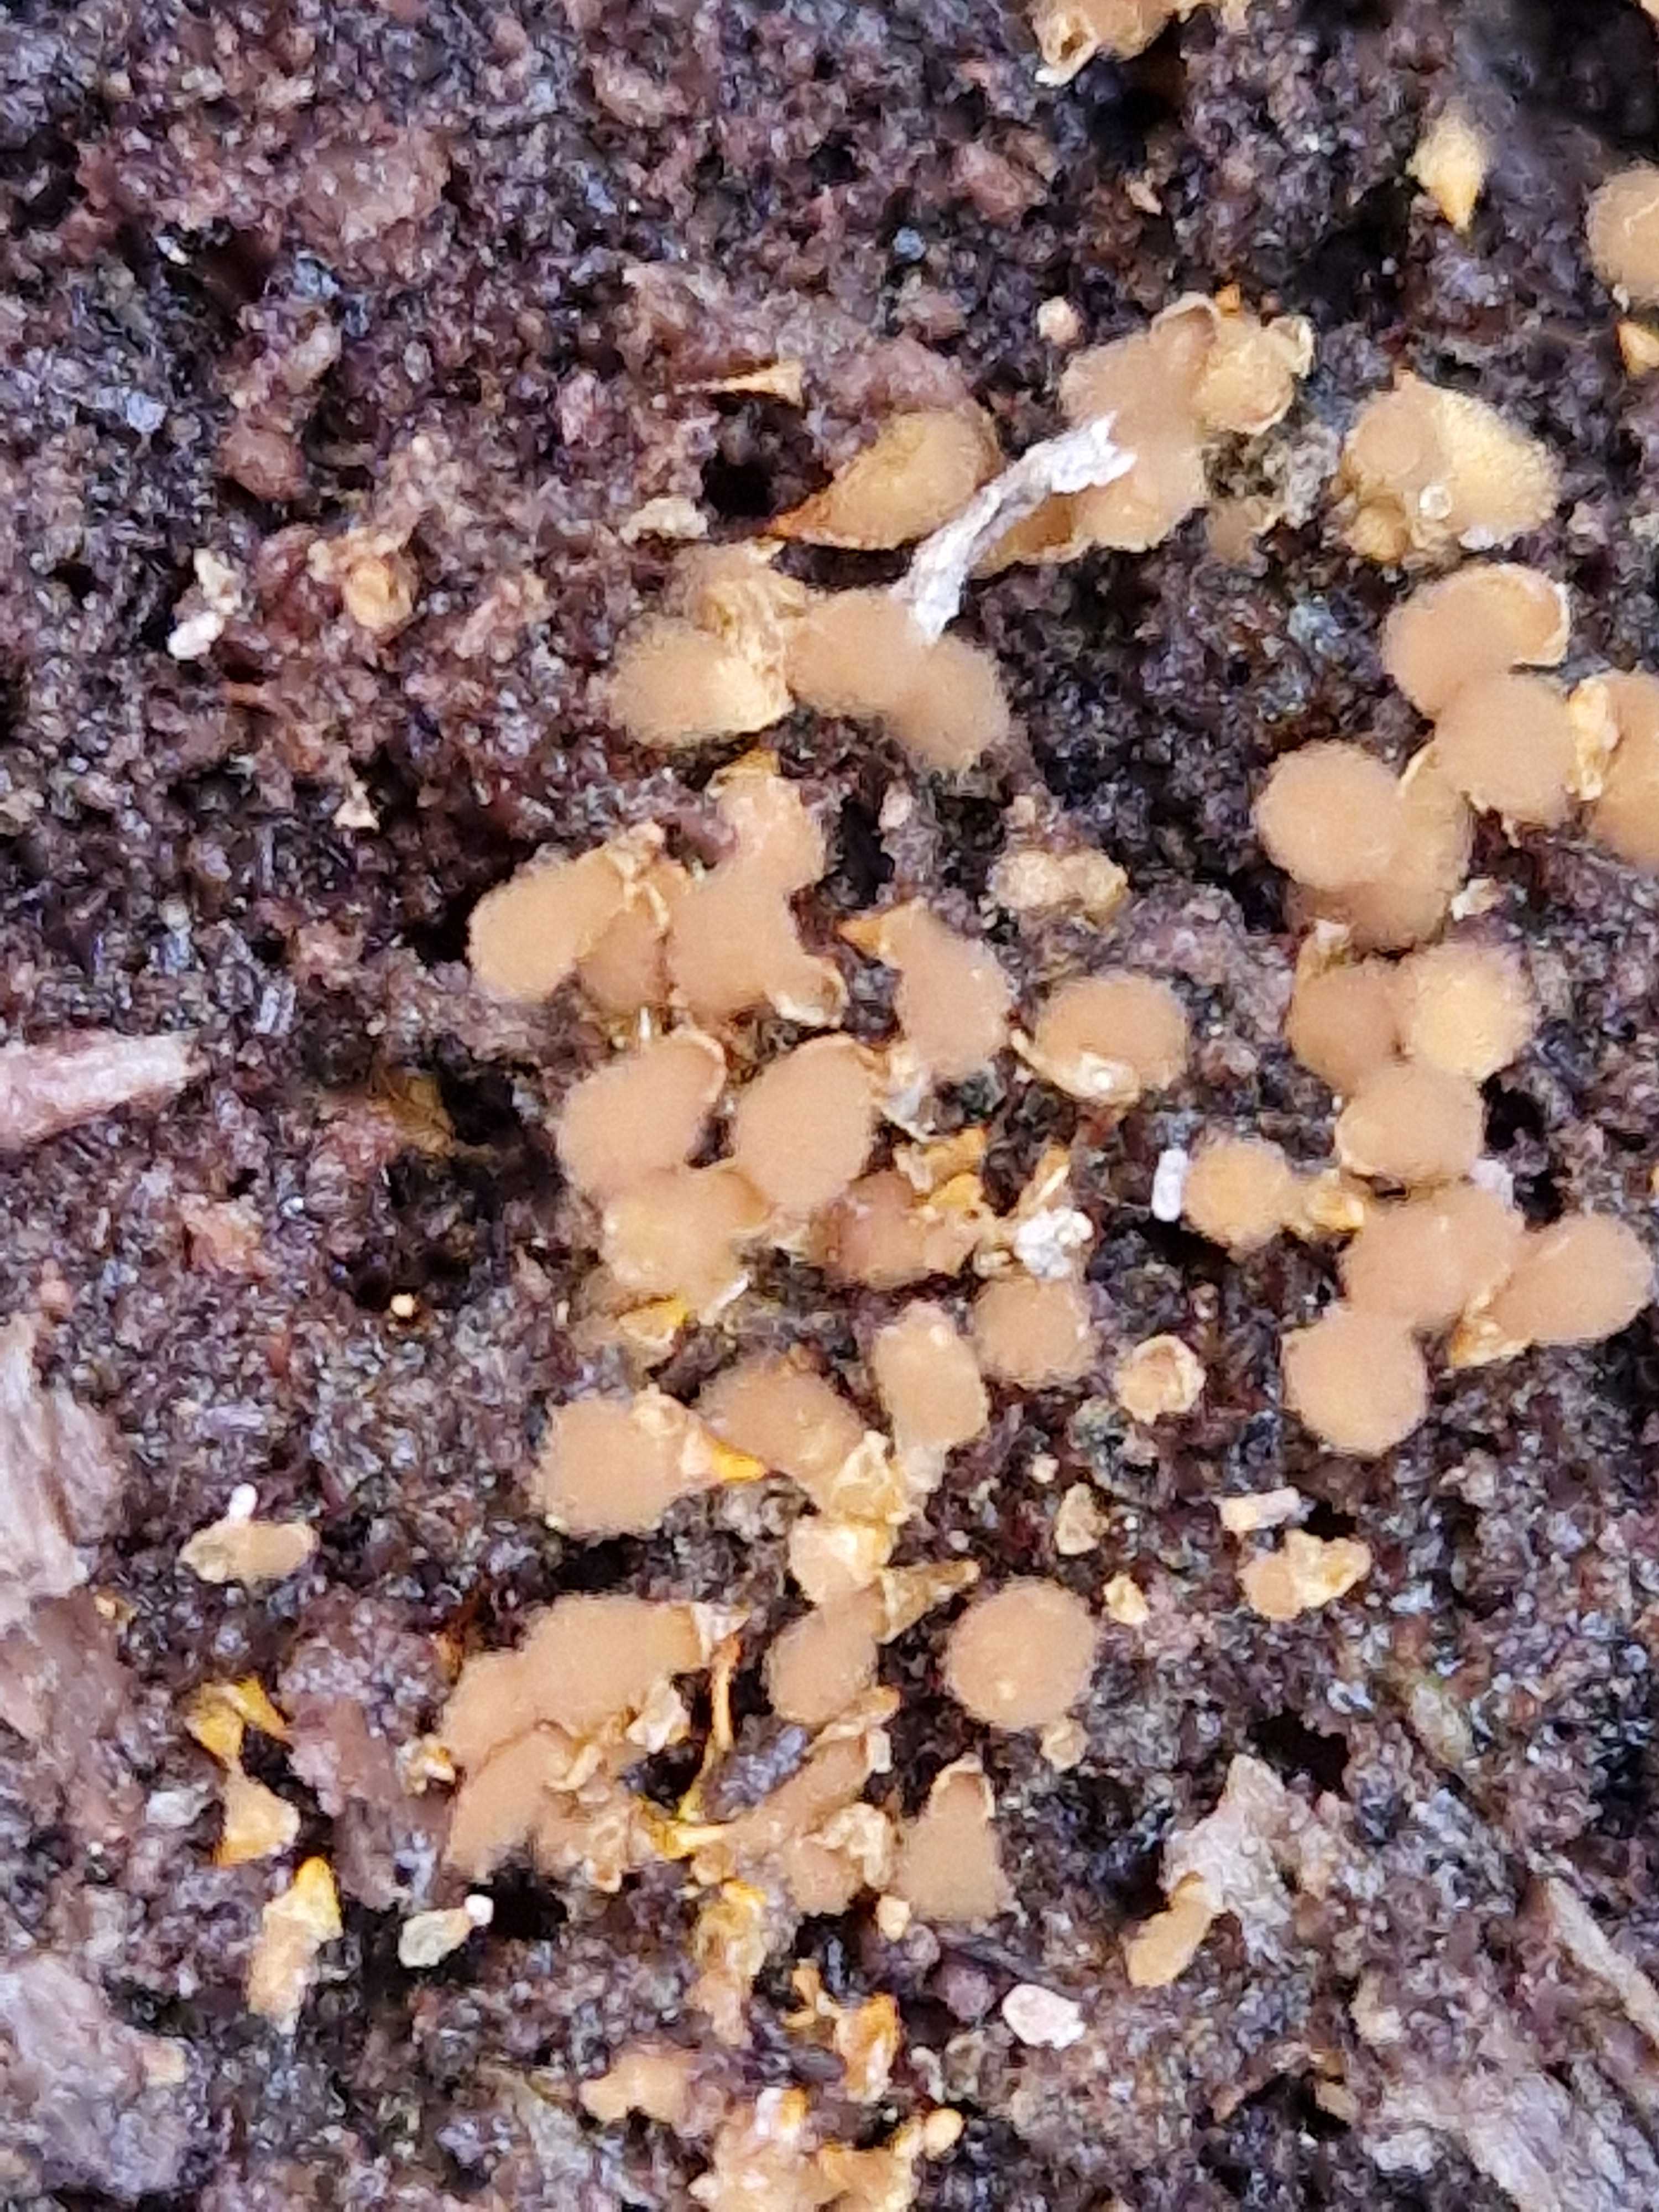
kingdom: Protozoa
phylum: Mycetozoa
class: Myxomycetes
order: Trichiales
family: Arcyriaceae
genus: Hemitrichia
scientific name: Hemitrichia clavata
